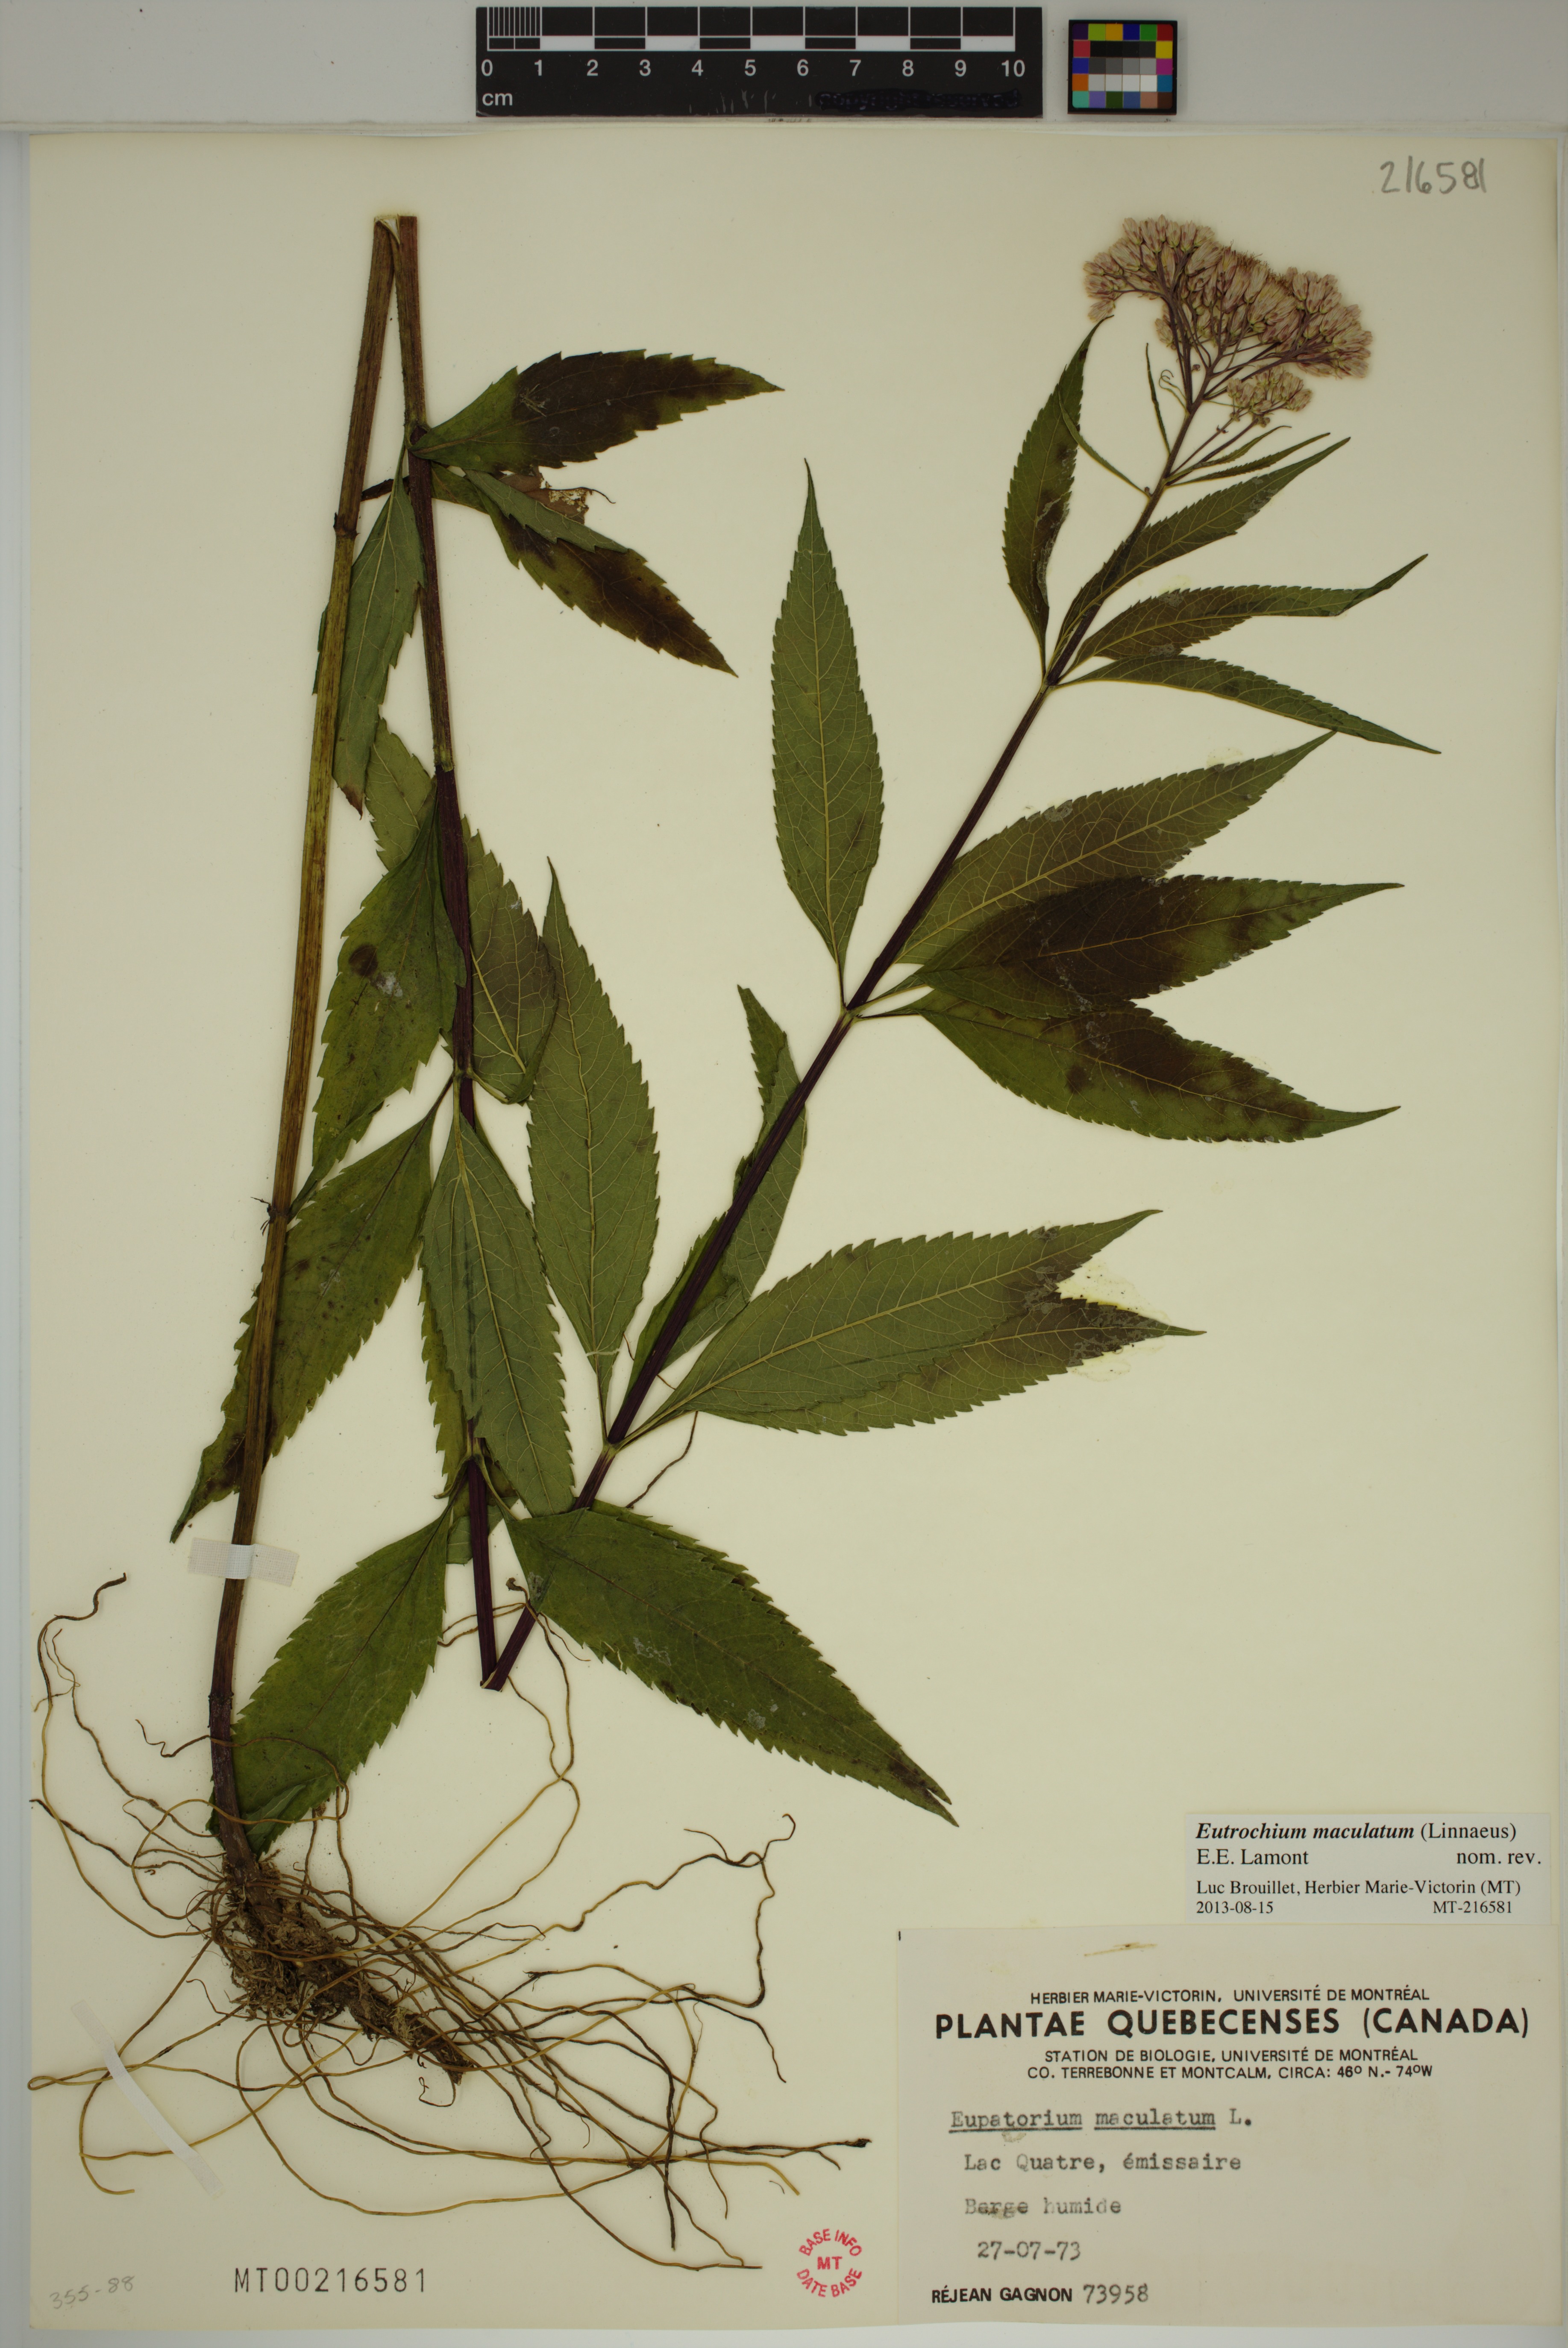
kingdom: Plantae
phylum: Tracheophyta
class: Magnoliopsida
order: Asterales
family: Asteraceae
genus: Eutrochium
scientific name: Eutrochium maculatum
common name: Spotted joe pye weed
